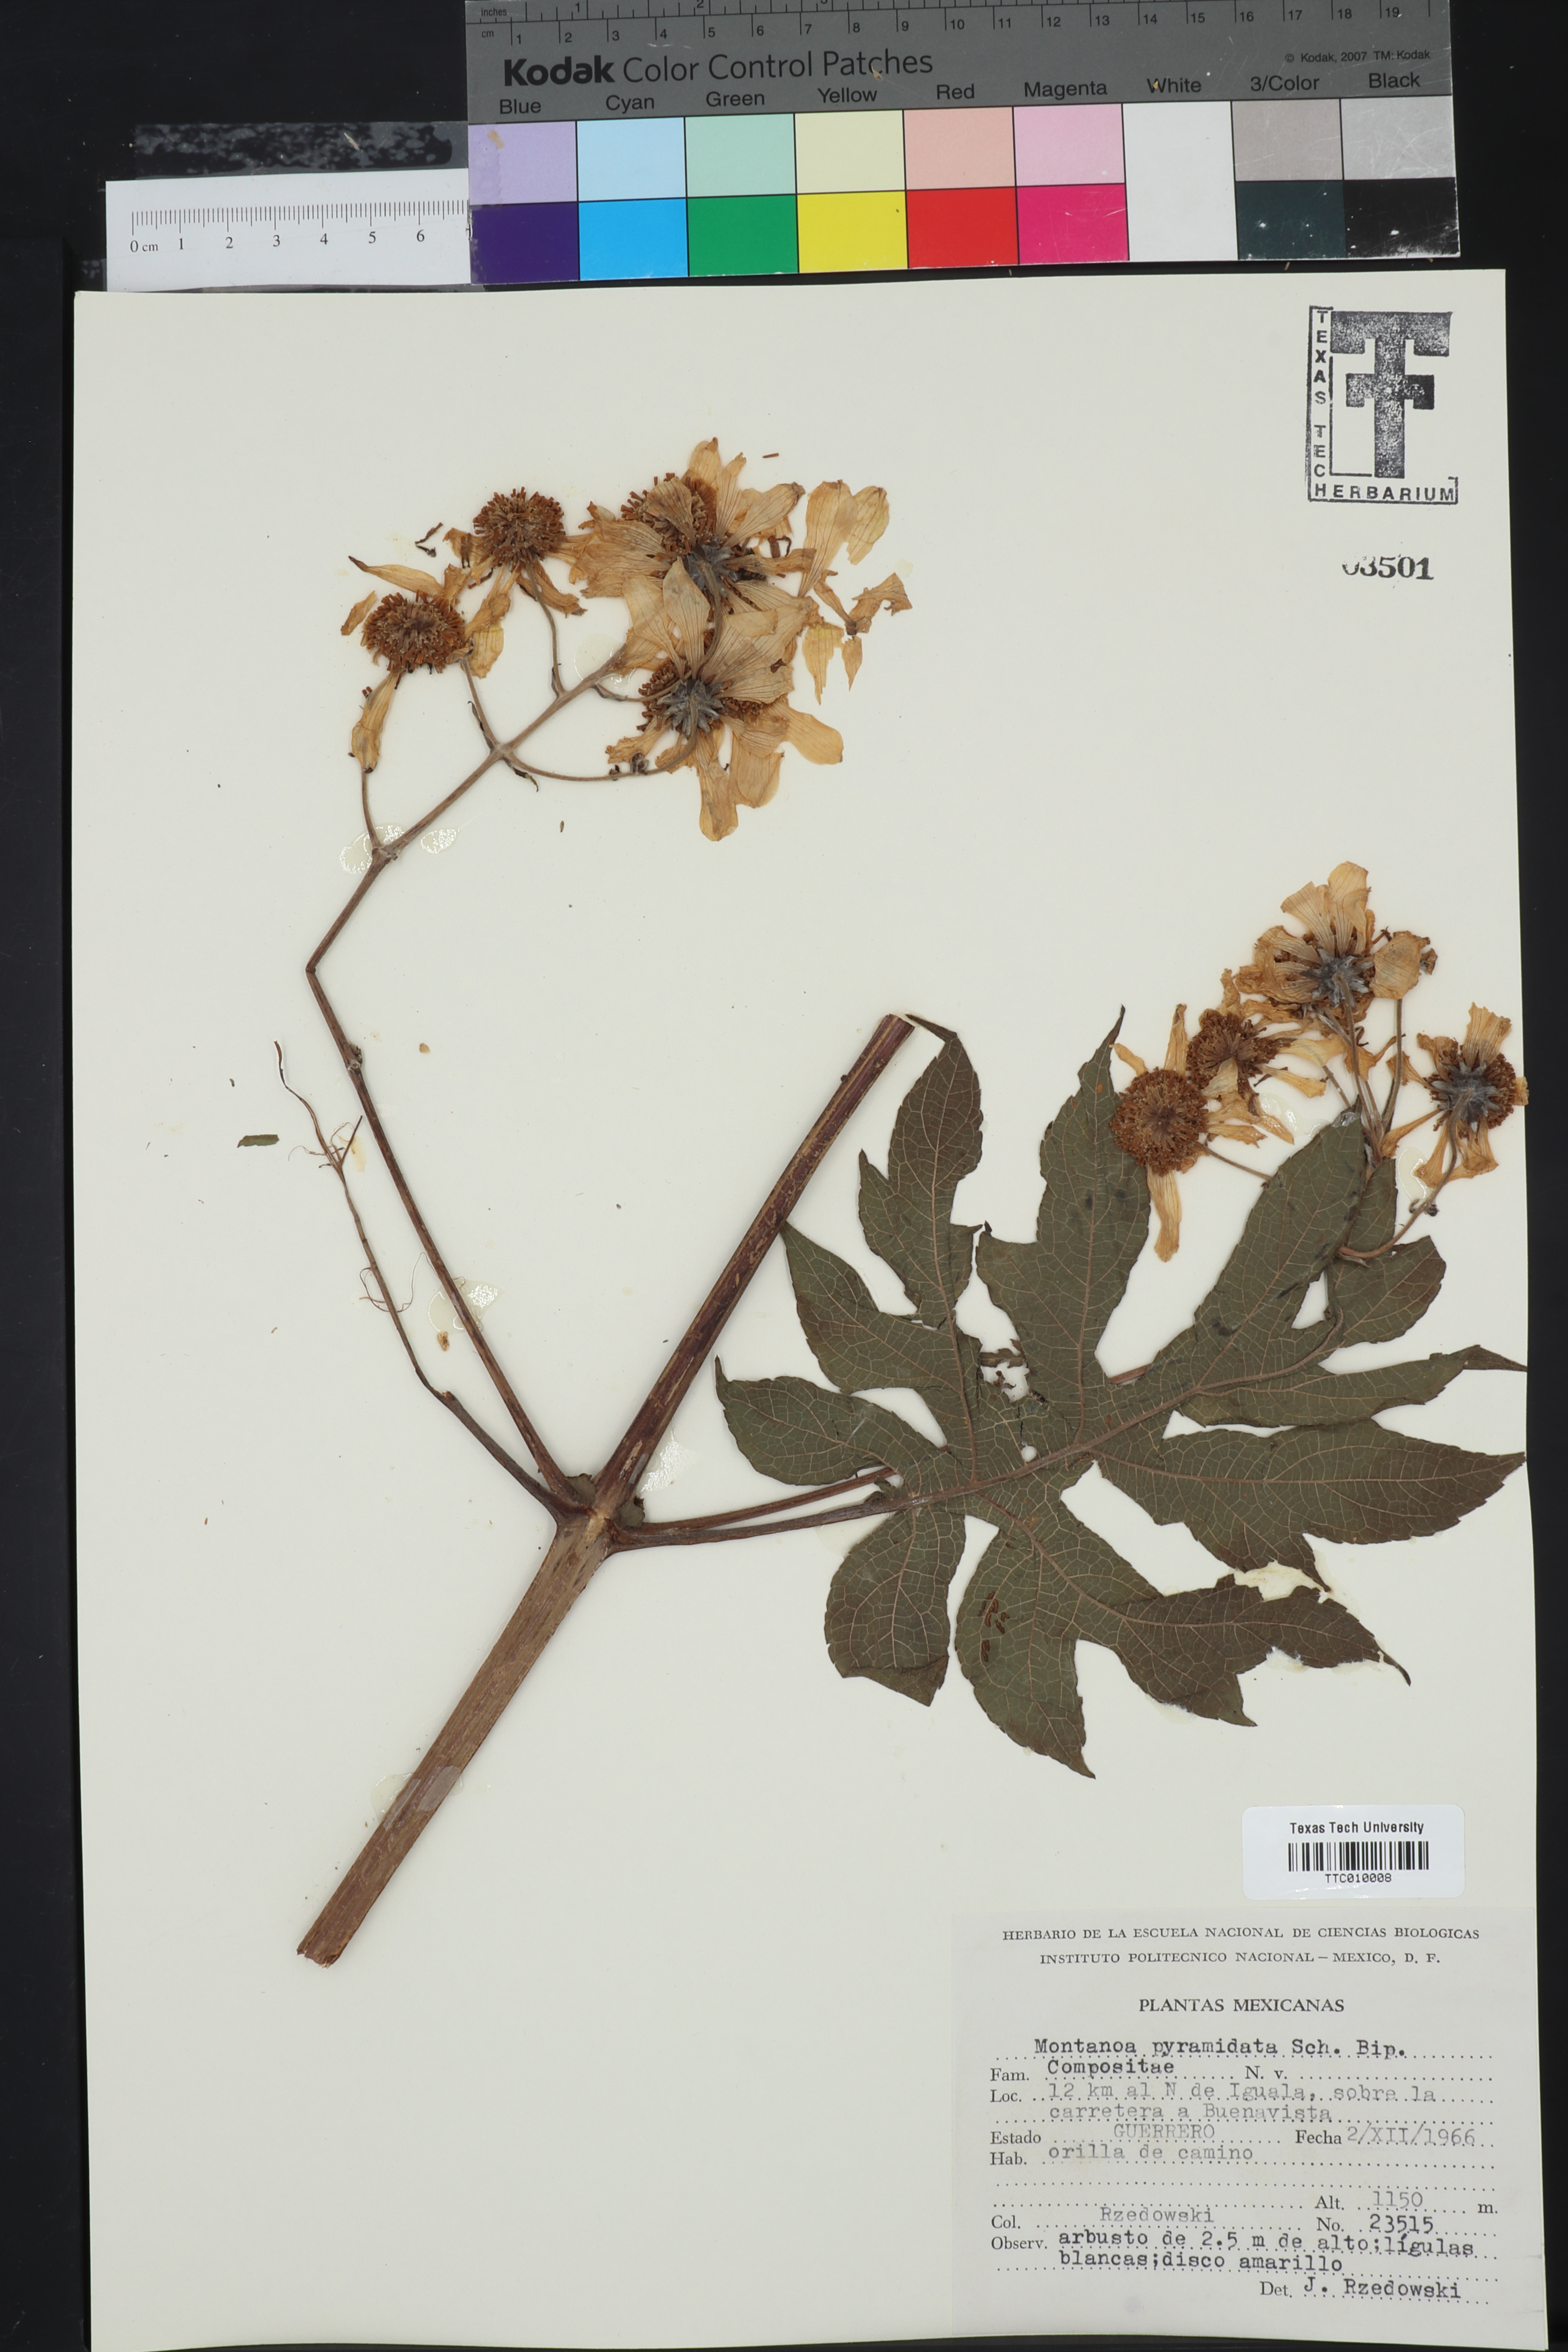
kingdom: Plantae
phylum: Tracheophyta
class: Magnoliopsida
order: Asterales
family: Asteraceae
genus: Montanoa
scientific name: Montanoa bipinnatifida
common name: Mexican daisy bush
